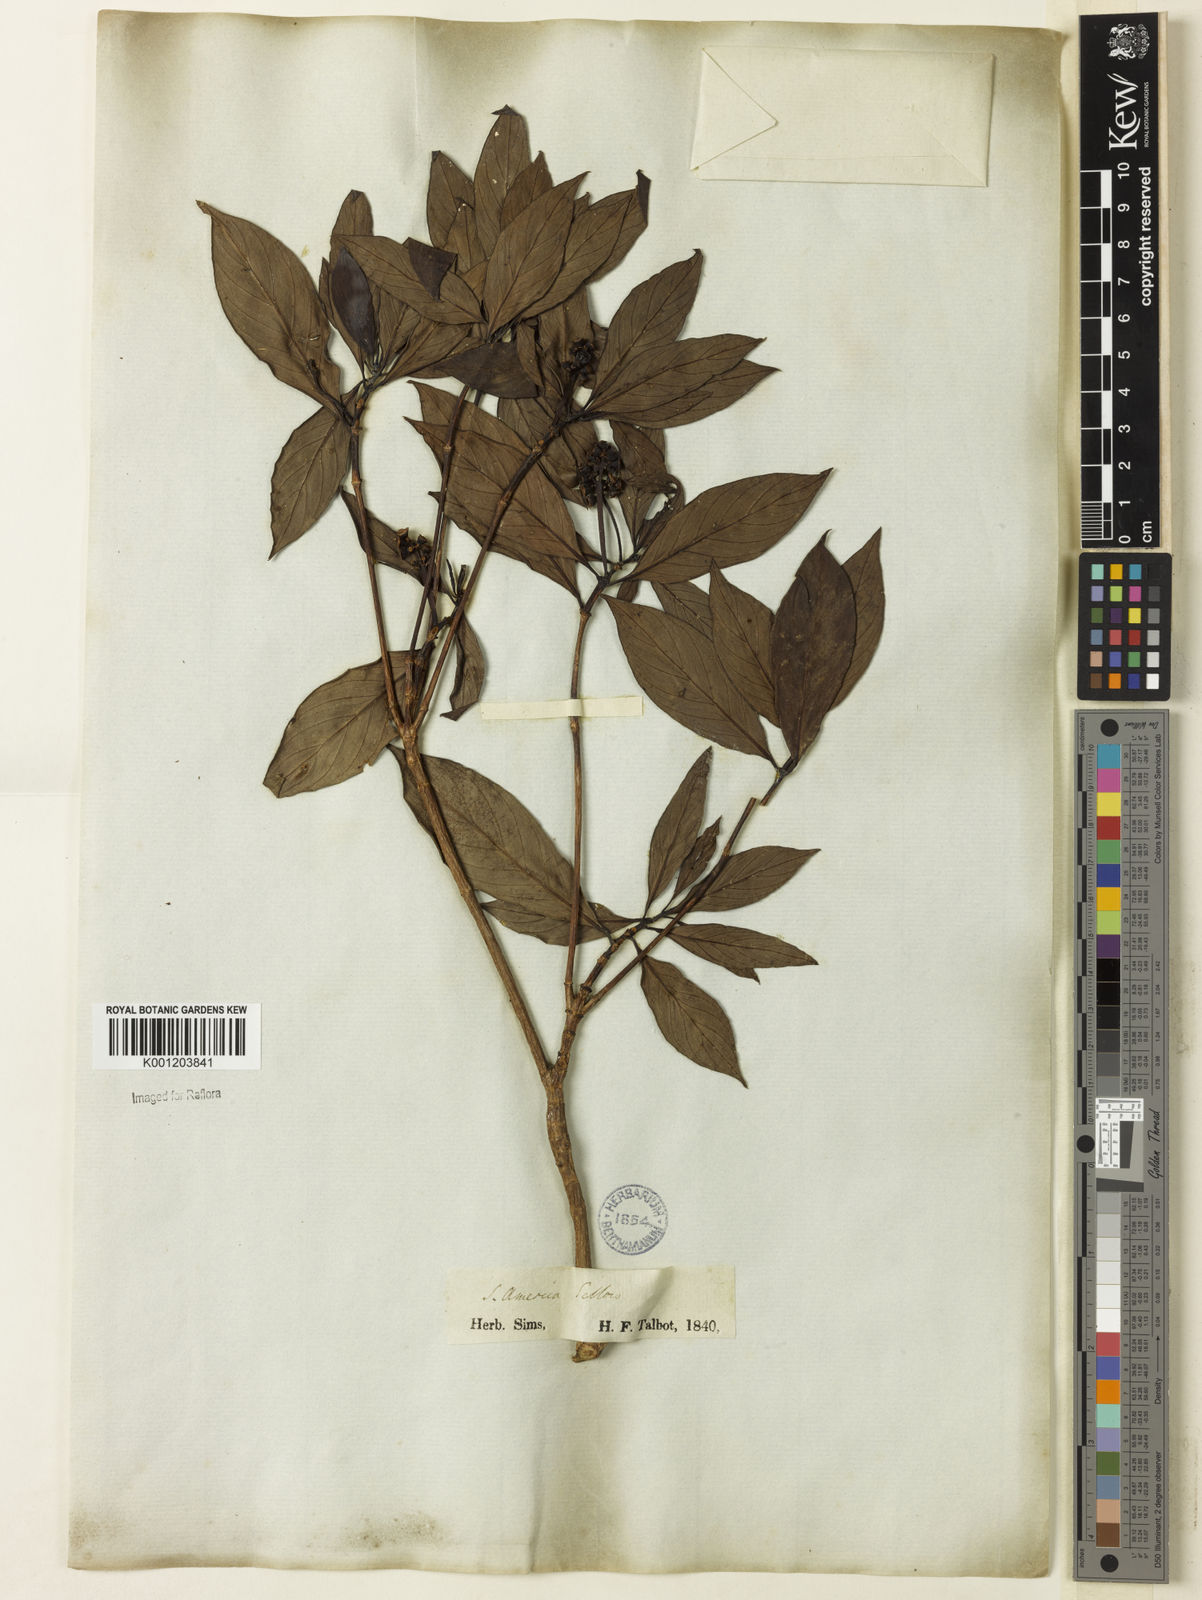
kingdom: Plantae
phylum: Tracheophyta
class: Magnoliopsida
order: Gentianales
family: Rubiaceae
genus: Pagamea
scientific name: Pagamea guianensis
